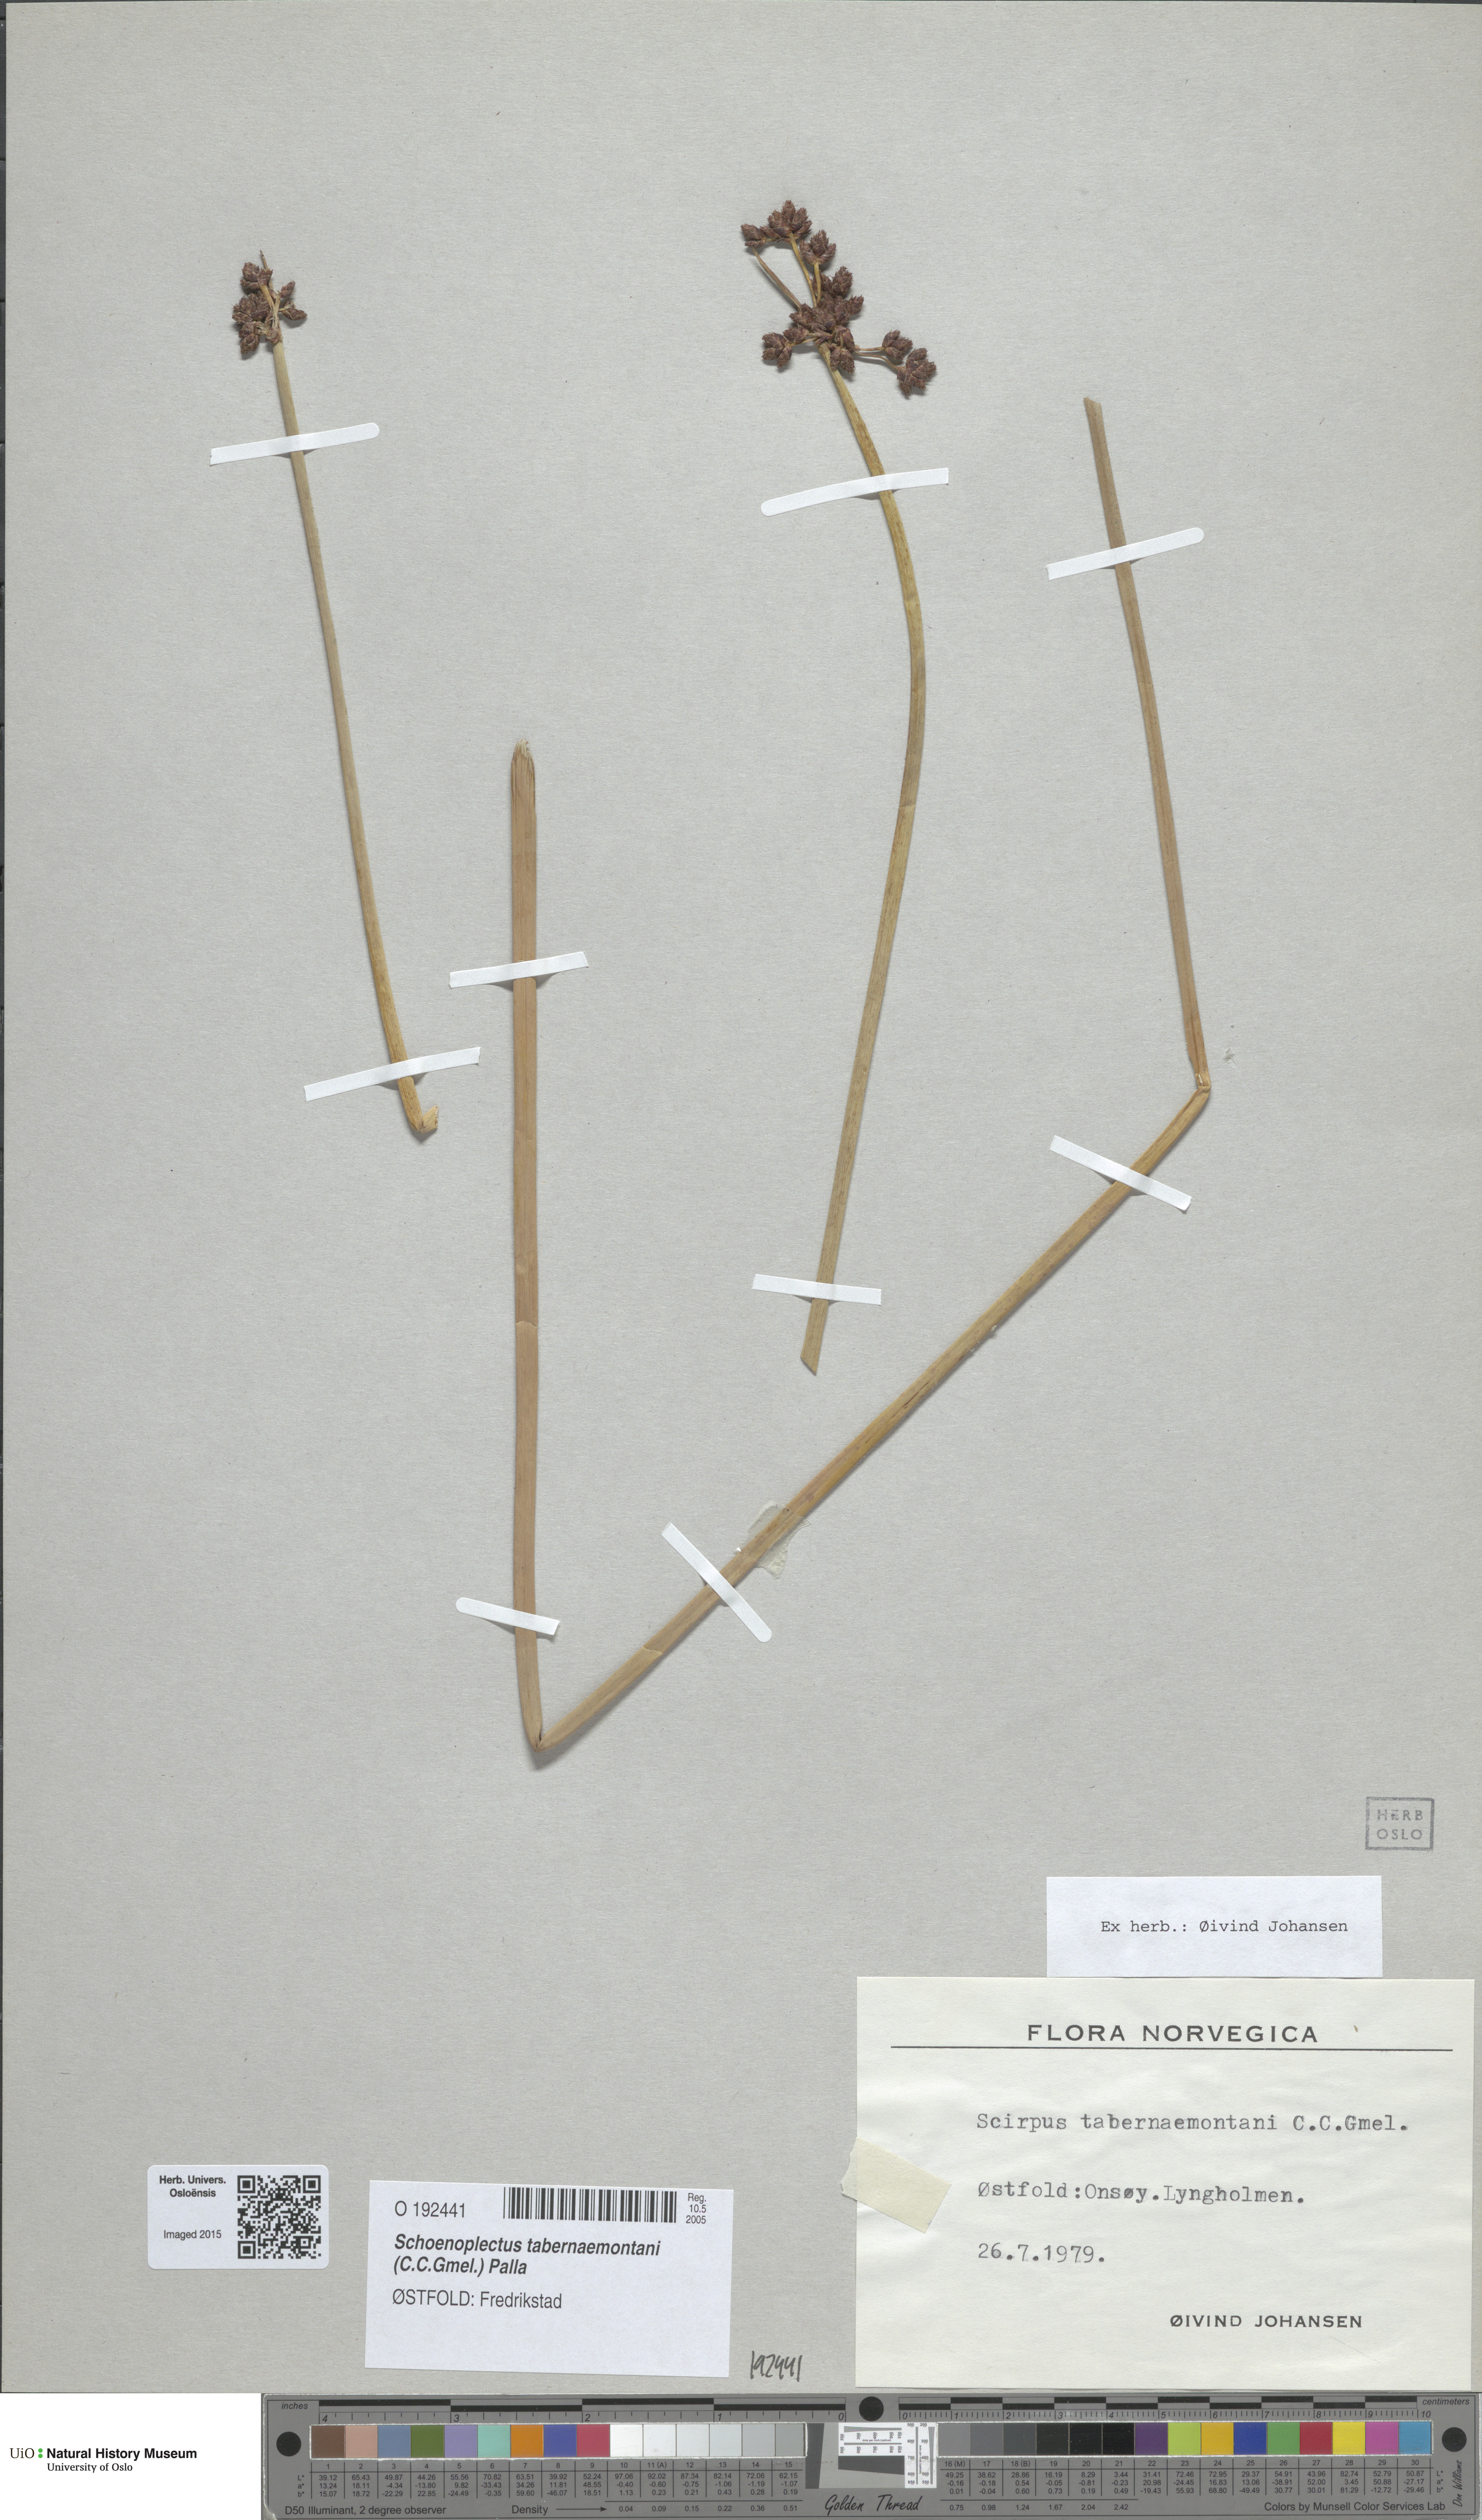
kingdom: Plantae
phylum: Tracheophyta
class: Liliopsida
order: Poales
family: Cyperaceae
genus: Schoenoplectus
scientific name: Schoenoplectus tabernaemontani
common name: Grey club-rush
